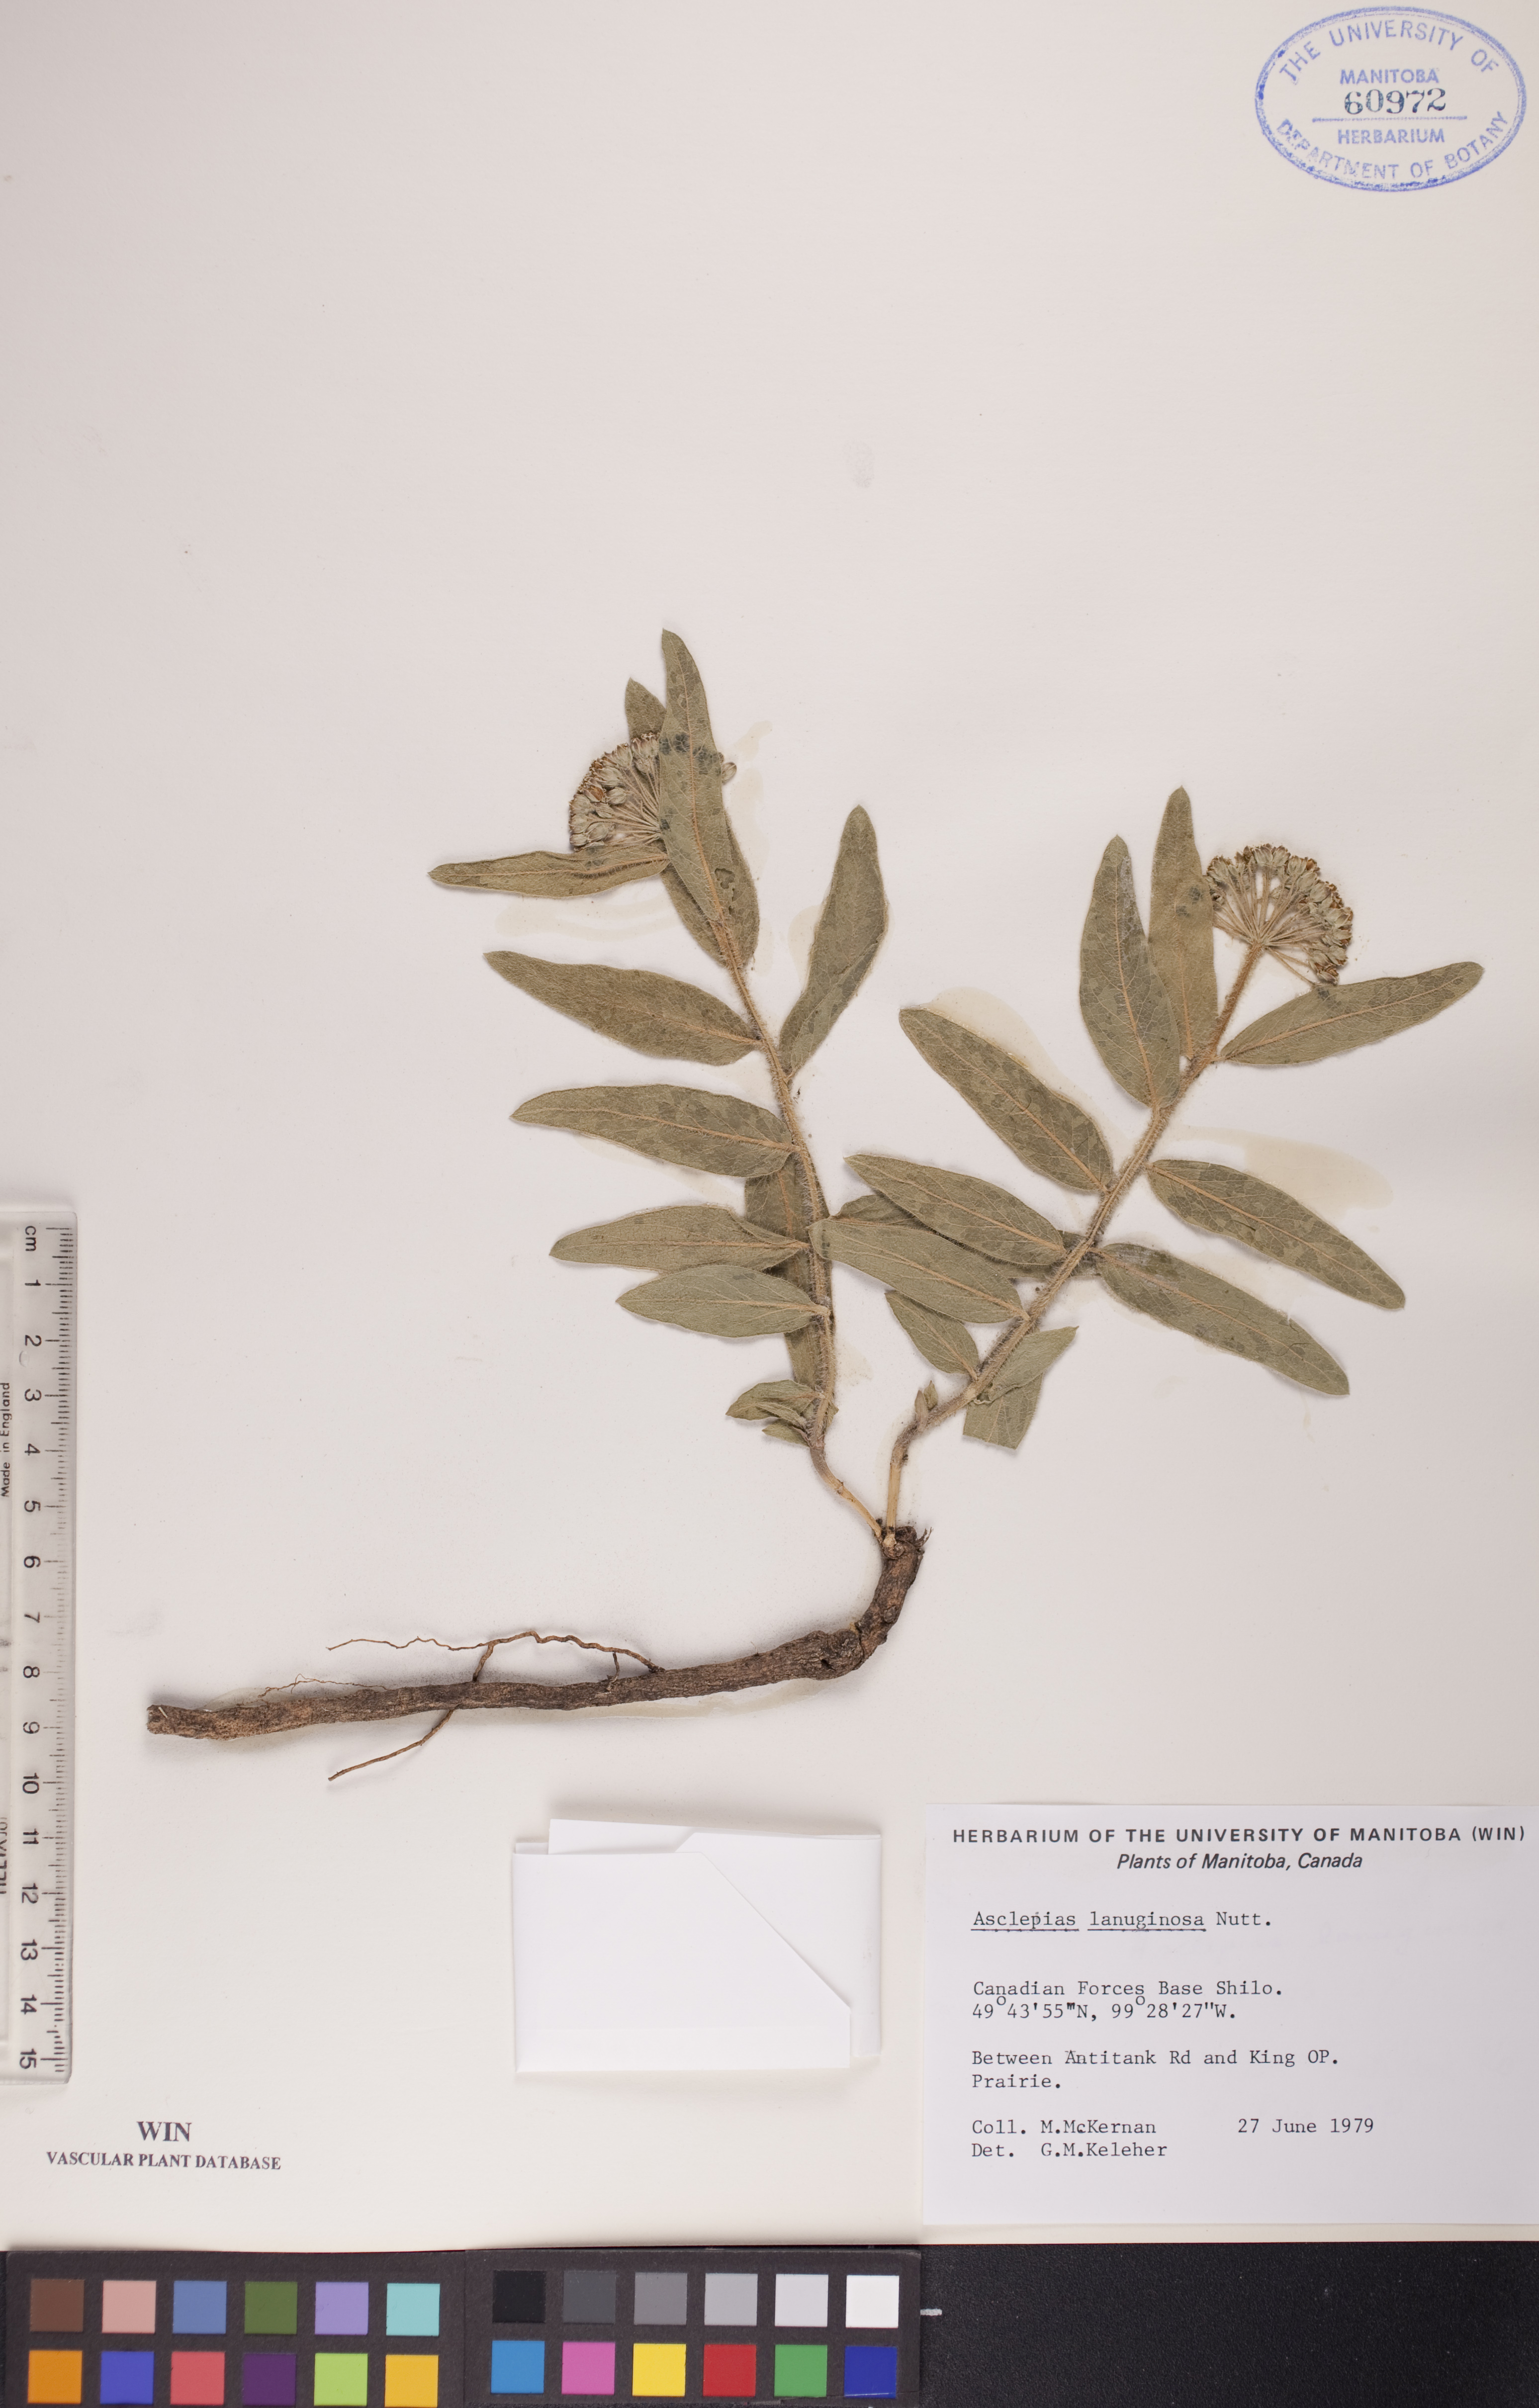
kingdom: Plantae
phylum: Tracheophyta
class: Magnoliopsida
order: Gentianales
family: Apocynaceae
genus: Asclepias
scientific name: Asclepias lanuginosa
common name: Side-cluster milkweed
